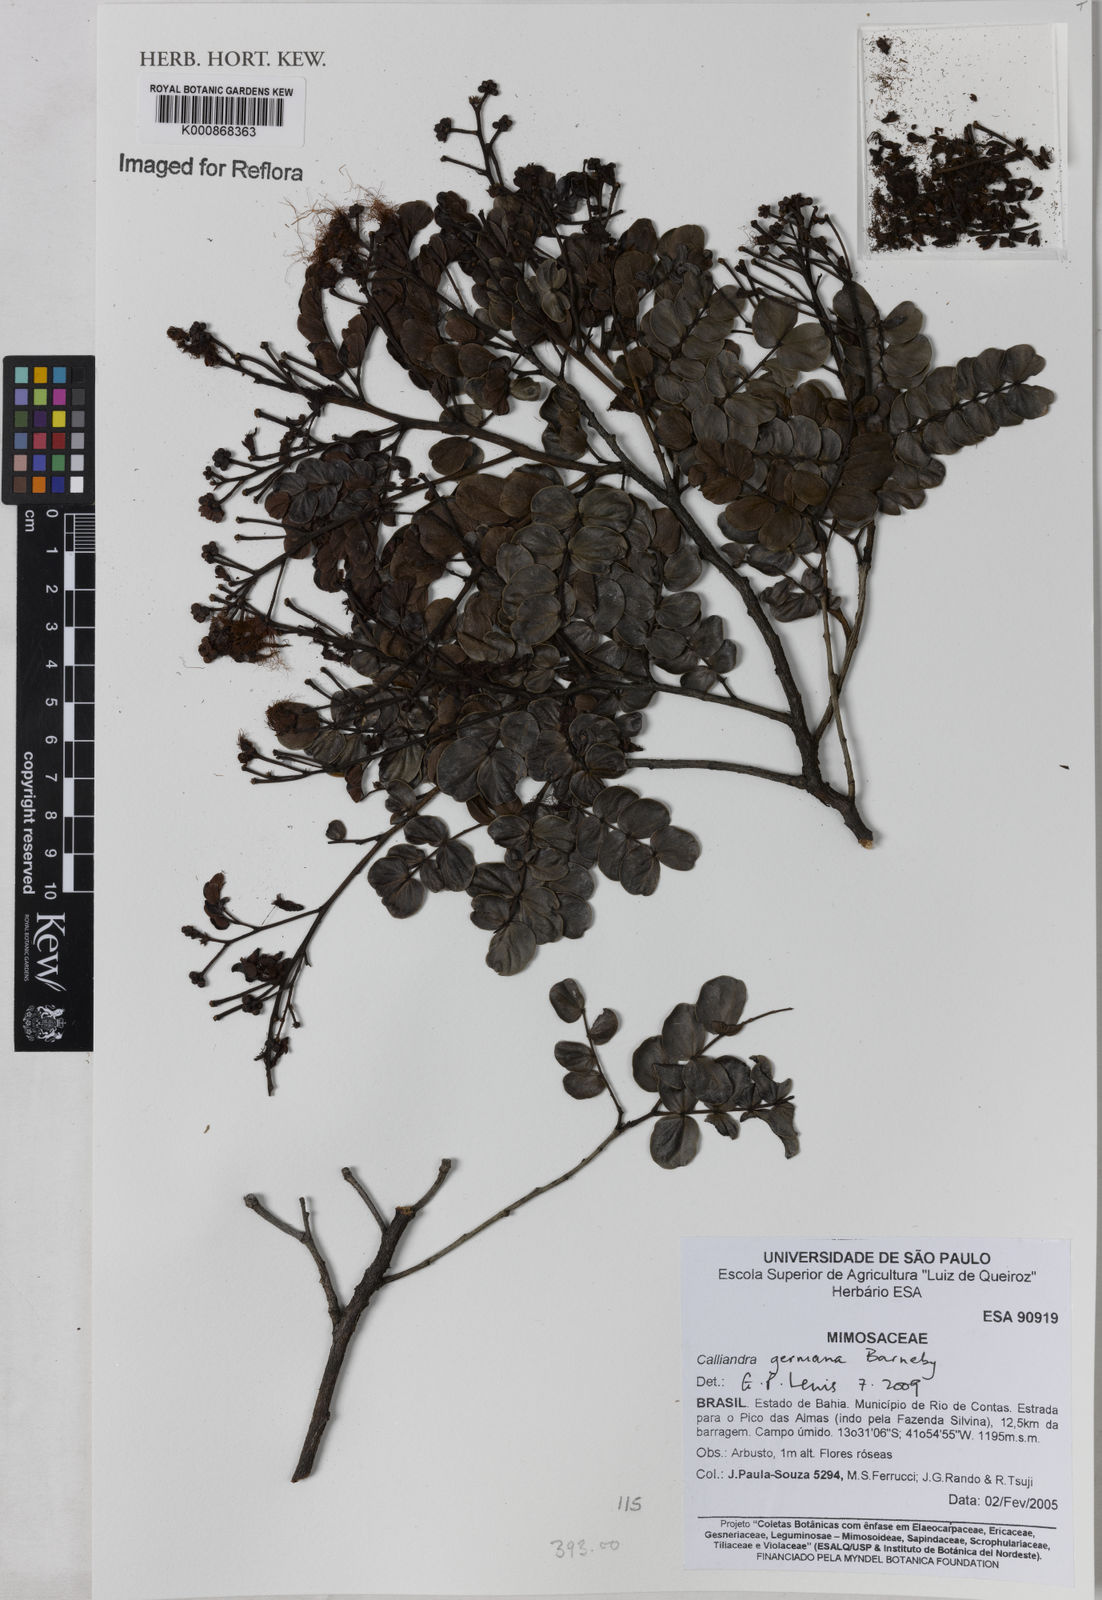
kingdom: Plantae
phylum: Tracheophyta
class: Magnoliopsida
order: Fabales
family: Fabaceae
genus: Calliandra
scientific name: Calliandra germana
